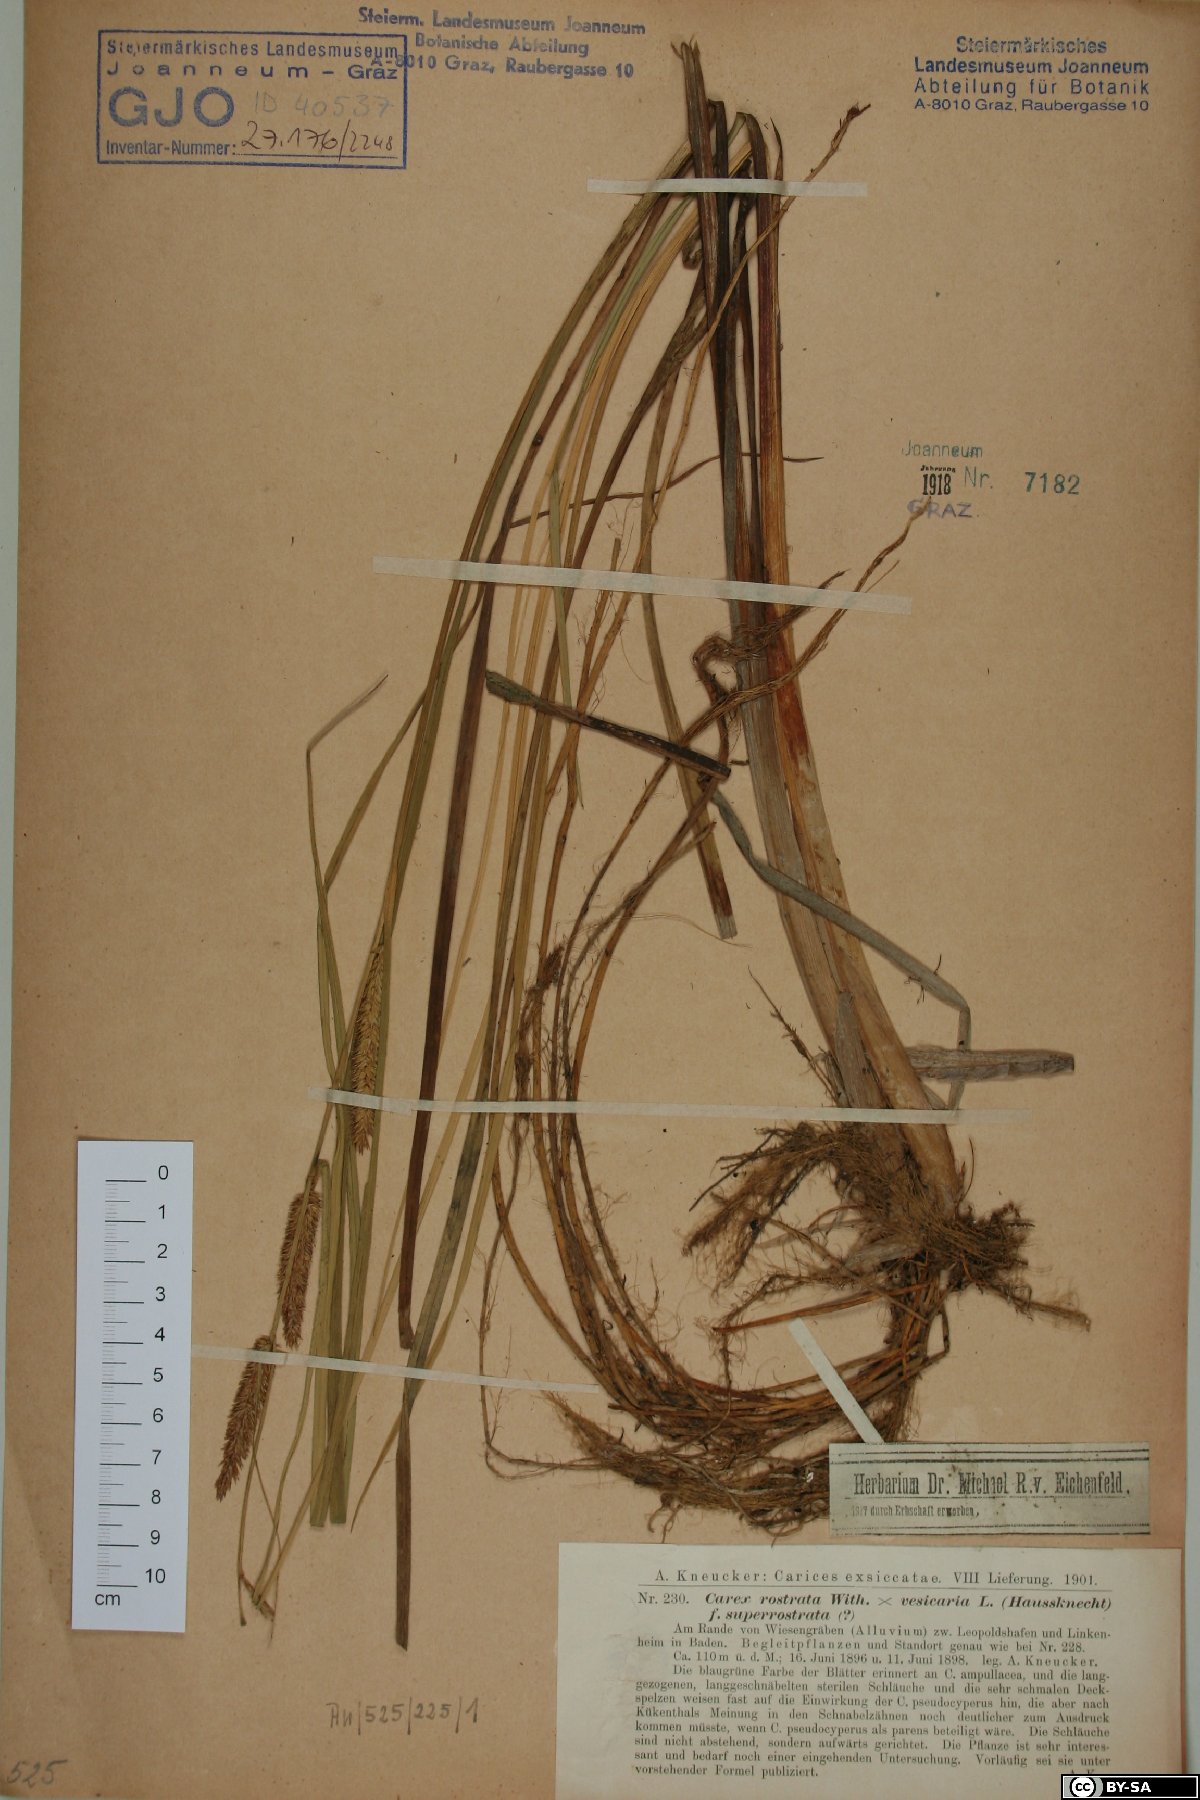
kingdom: Plantae
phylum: Tracheophyta
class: Liliopsida
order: Poales
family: Cyperaceae
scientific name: Cyperaceae
